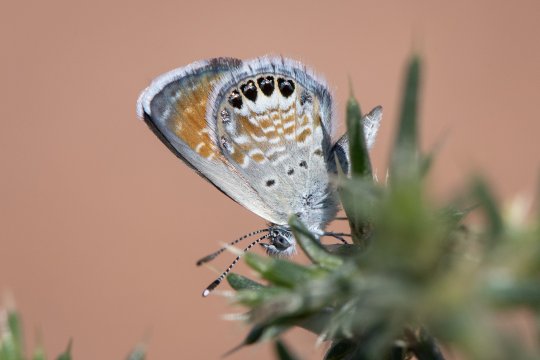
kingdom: Animalia
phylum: Arthropoda
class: Insecta
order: Lepidoptera
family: Lycaenidae
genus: Brephidium
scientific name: Brephidium exilis
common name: Western Pygmy-Blue
